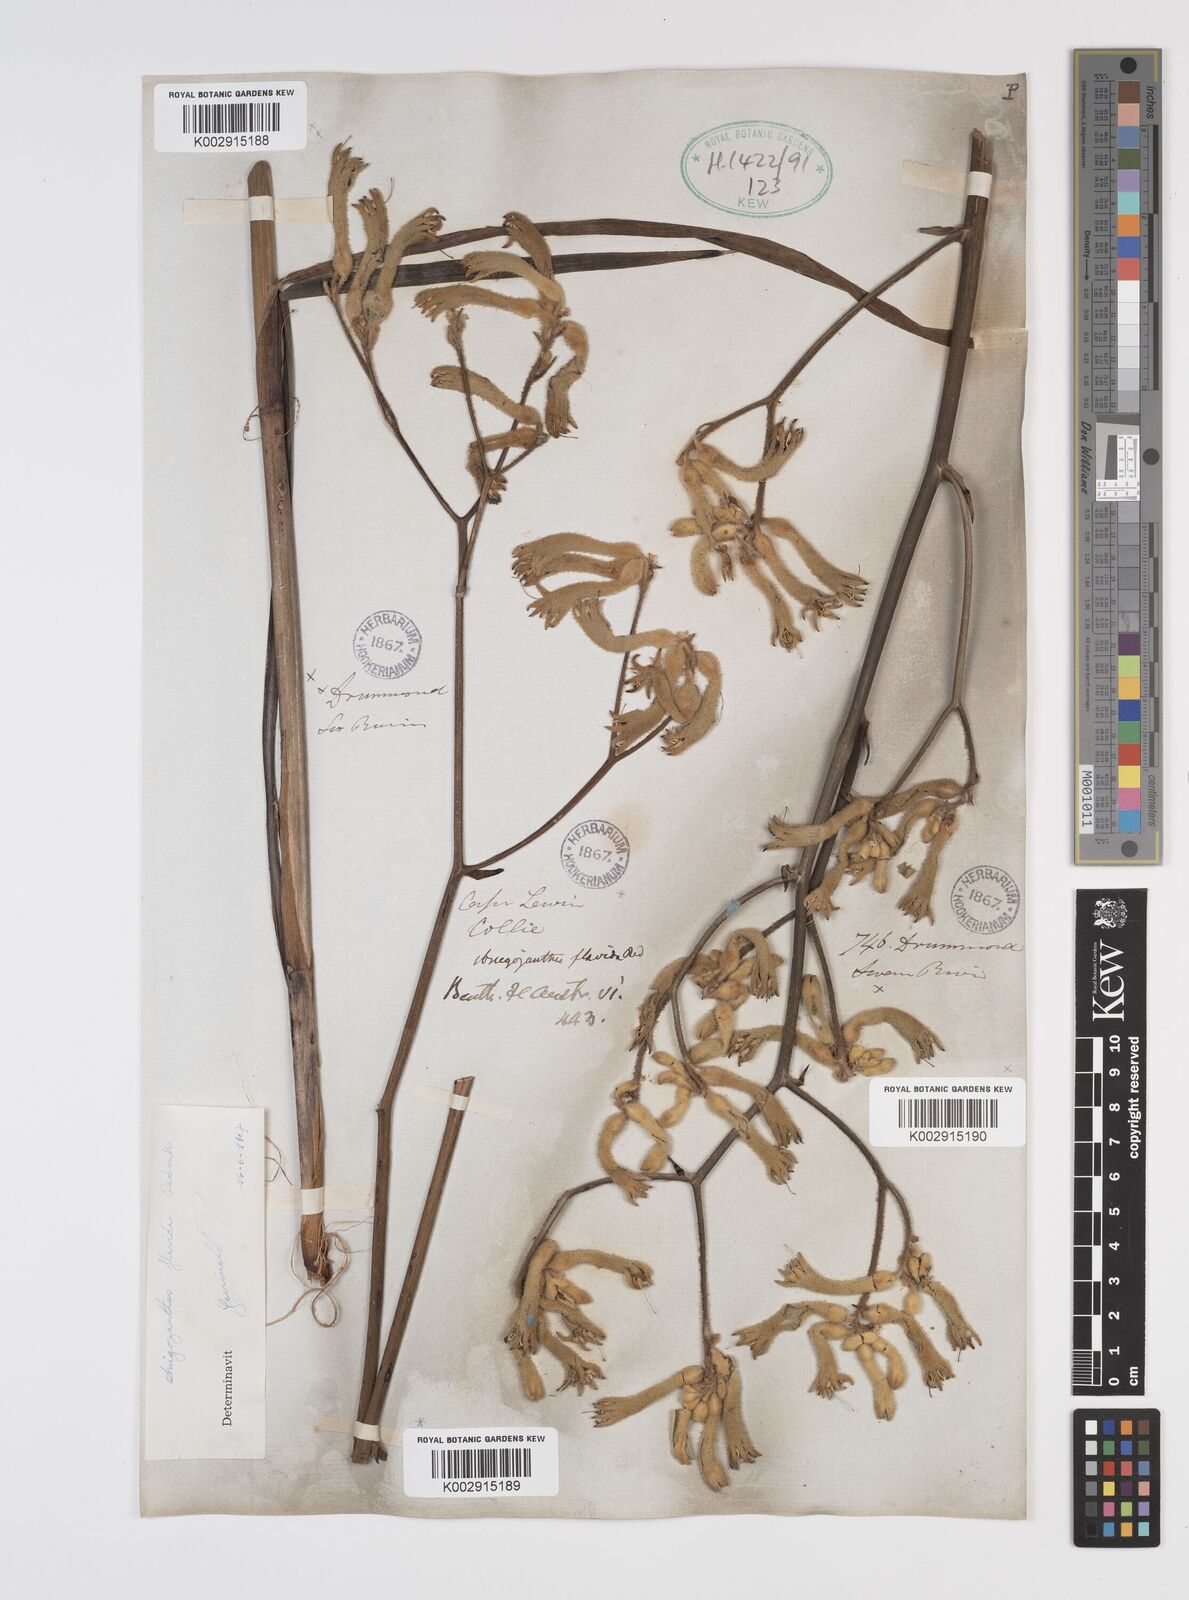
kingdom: Plantae
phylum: Tracheophyta
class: Liliopsida
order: Commelinales
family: Haemodoraceae
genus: Anigozanthos
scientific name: Anigozanthos flavidus
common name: Evergreen kangaroo-paw
